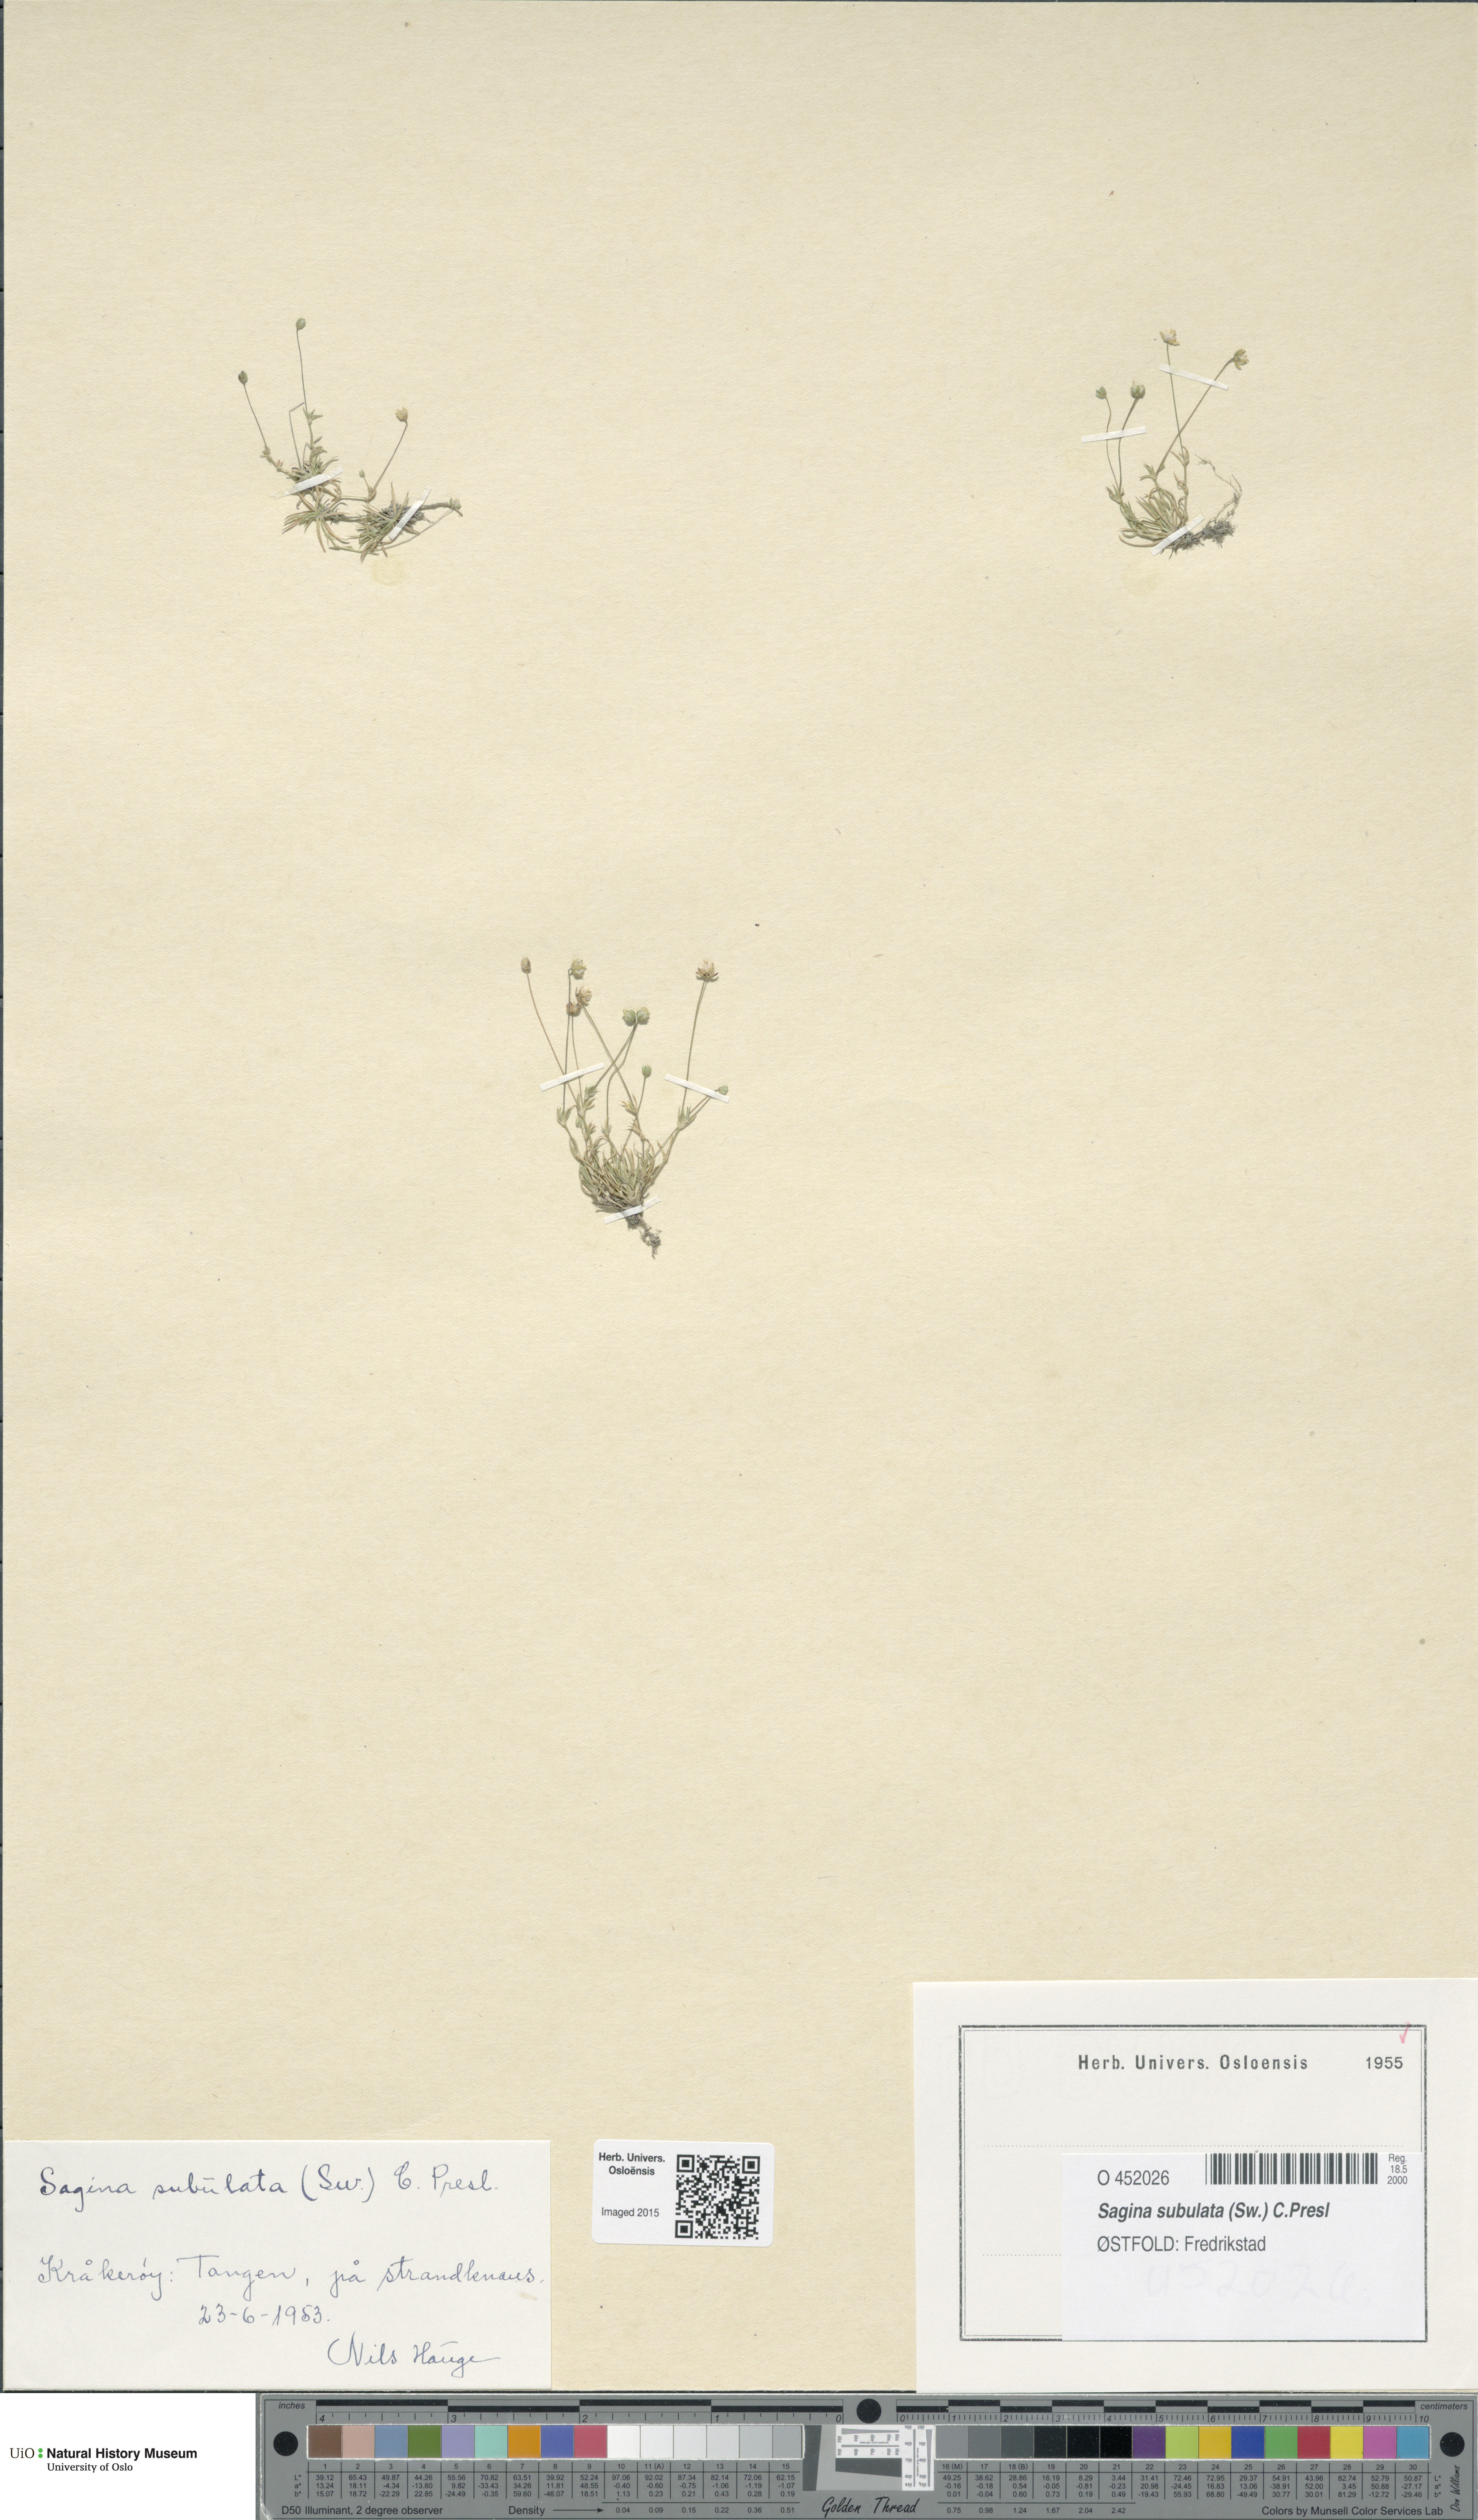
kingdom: Plantae
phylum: Tracheophyta
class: Magnoliopsida
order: Caryophyllales
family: Caryophyllaceae
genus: Sagina
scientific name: Sagina alexandrae
